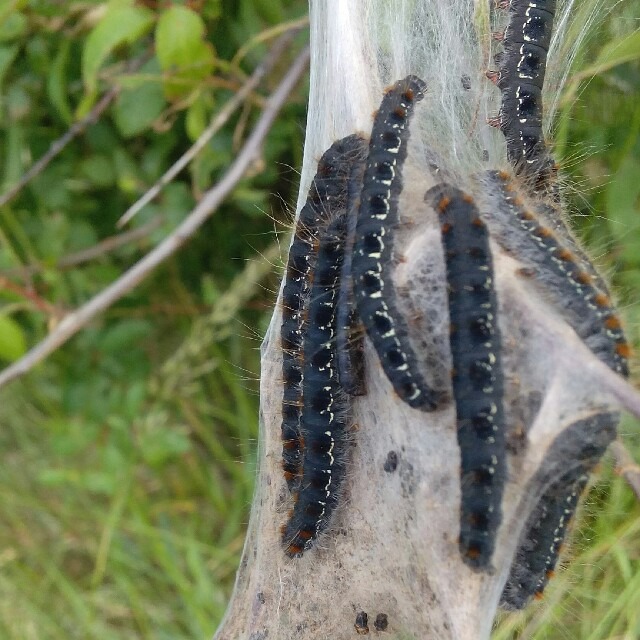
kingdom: Animalia
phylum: Arthropoda
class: Insecta
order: Lepidoptera
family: Lasiocampidae
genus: Eriogaster
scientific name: Eriogaster lanestris
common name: Uldhale
